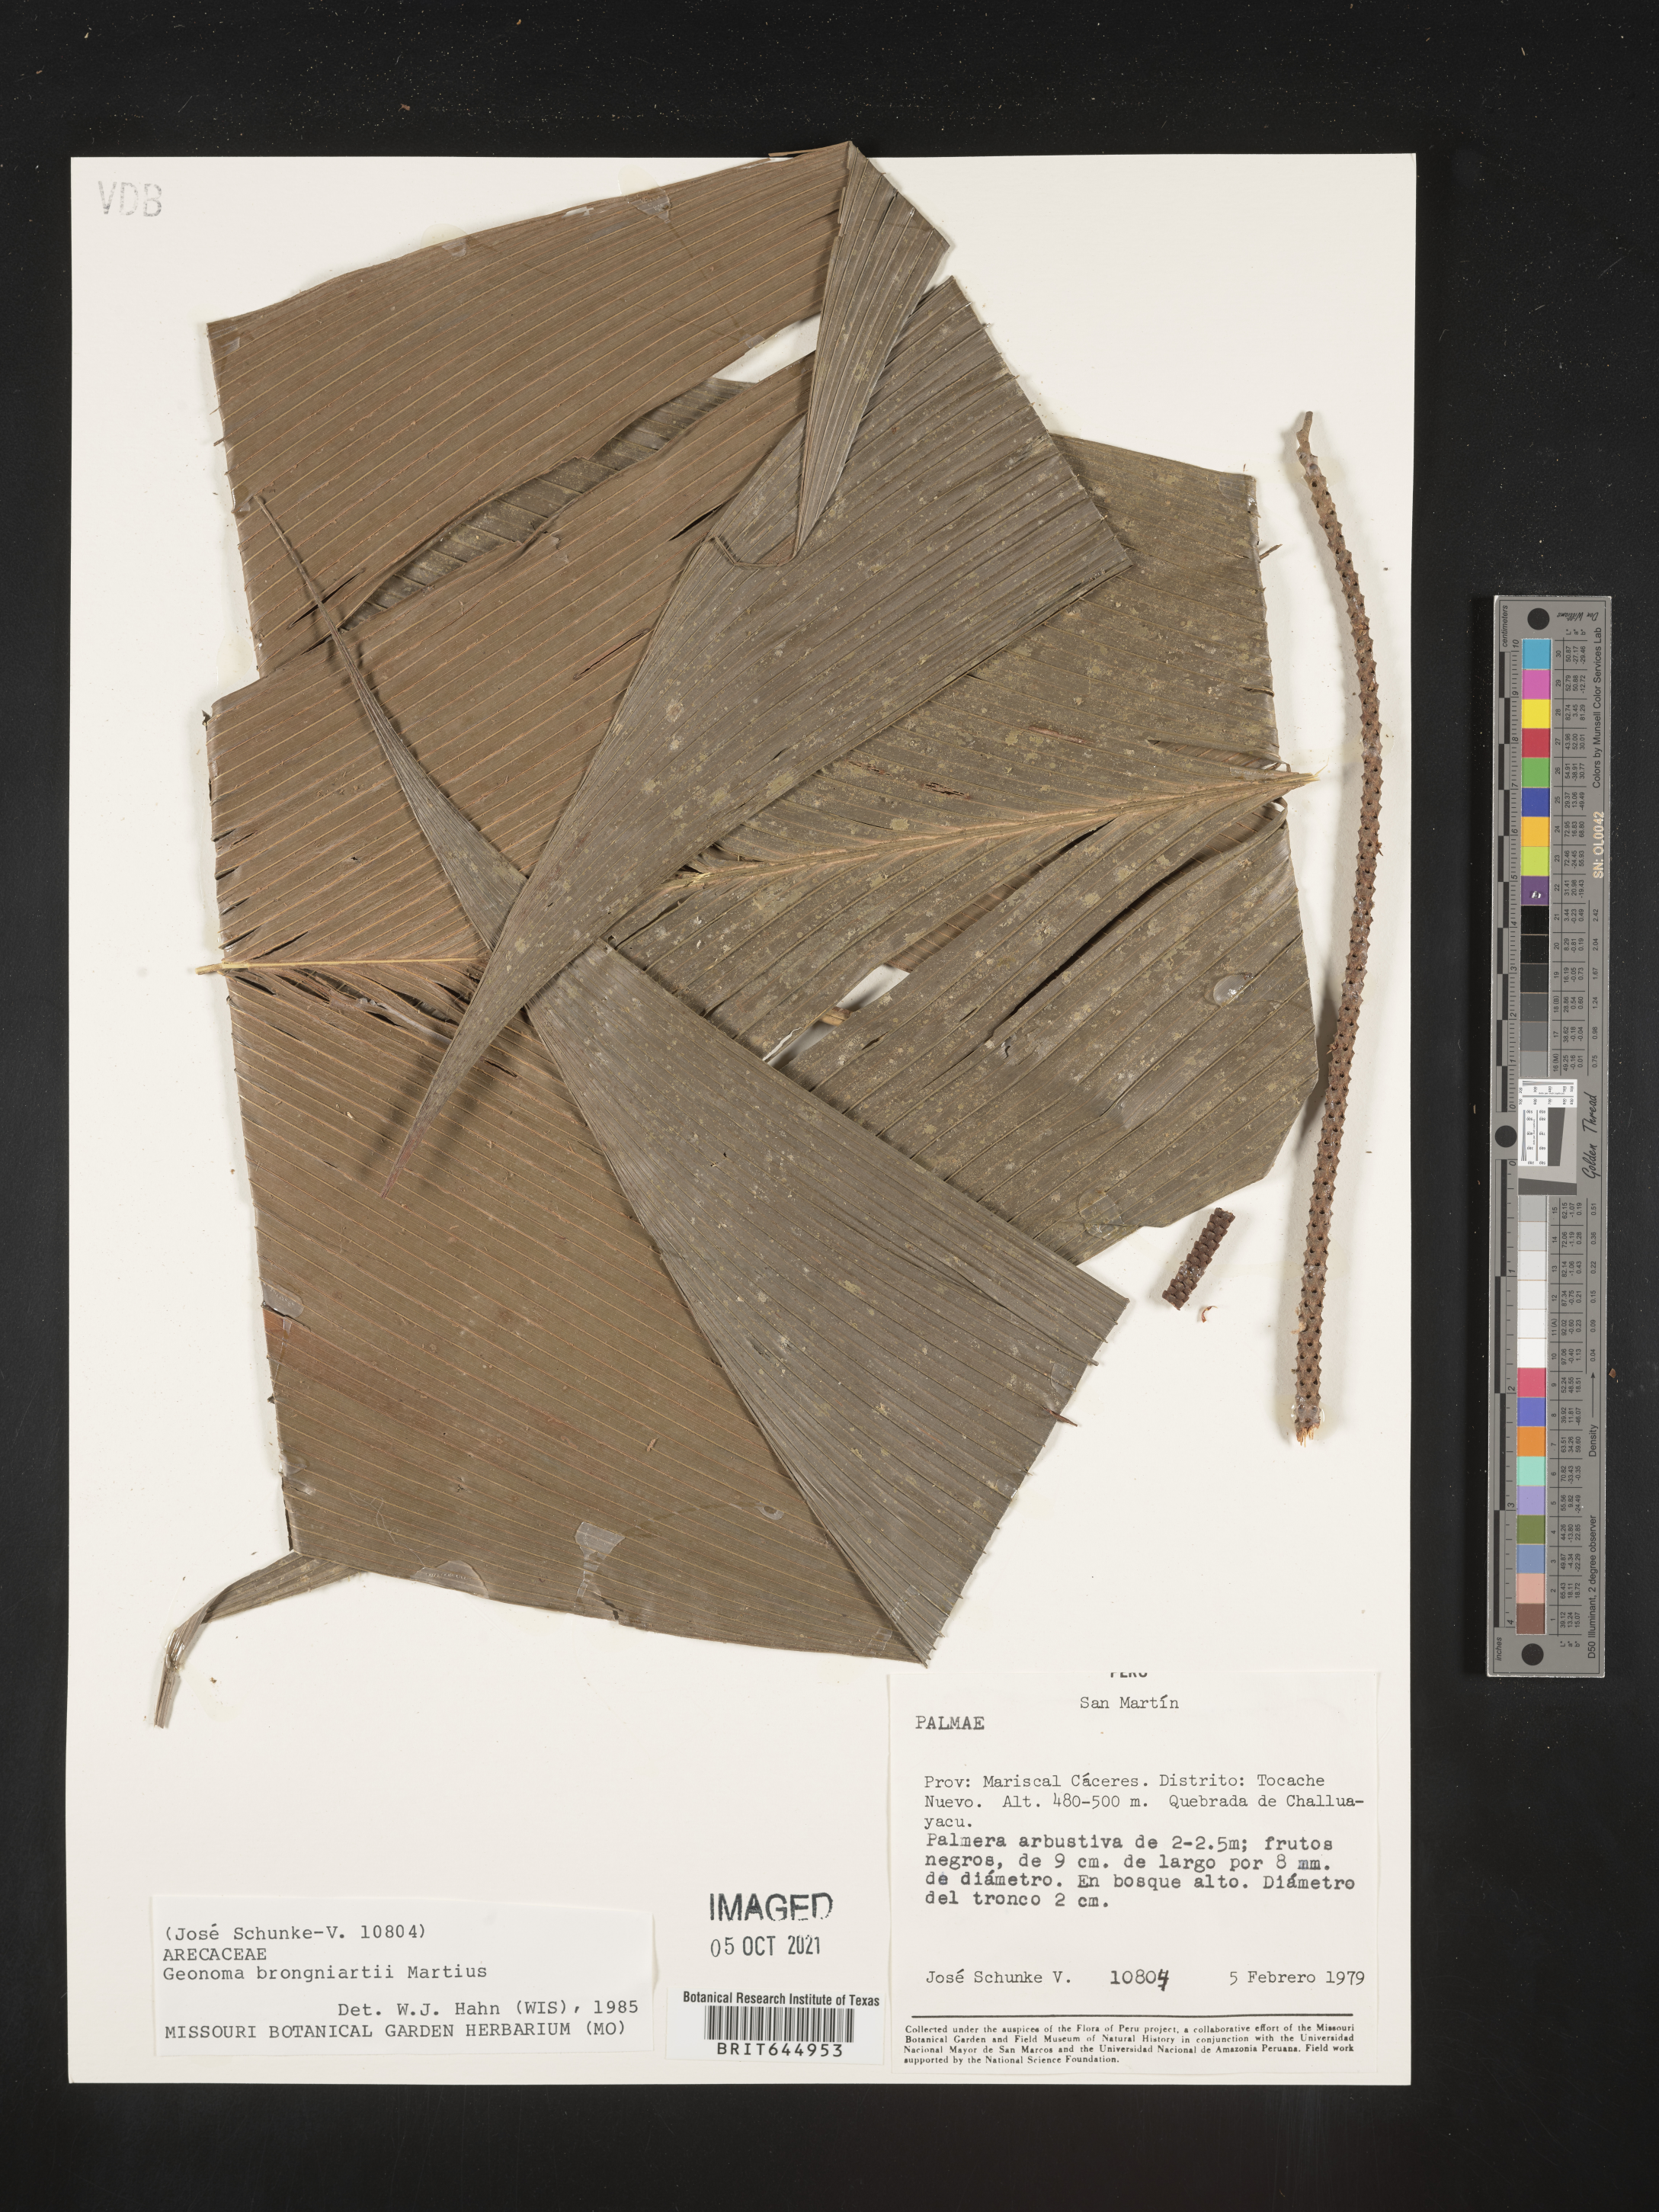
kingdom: Plantae
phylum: Tracheophyta
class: Liliopsida
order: Arecales
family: Arecaceae
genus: Geonoma
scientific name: Geonoma brongniartii
